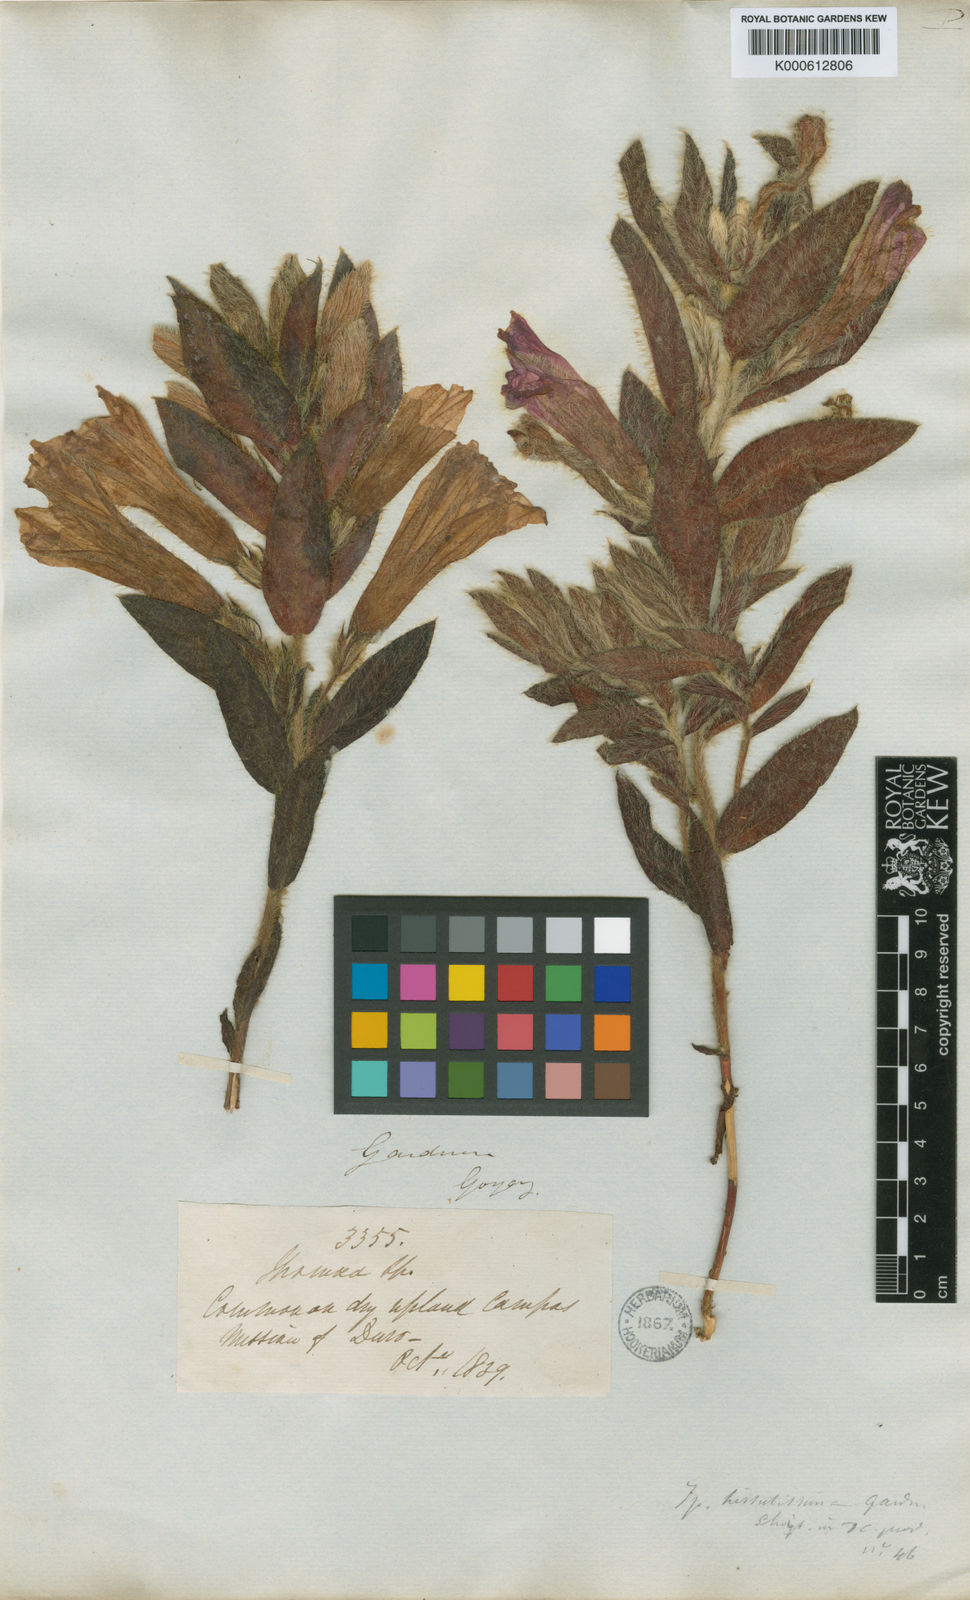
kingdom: Plantae
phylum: Tracheophyta
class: Magnoliopsida
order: Solanales
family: Convolvulaceae
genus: Ipomoea
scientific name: Ipomoea hirsutissima
